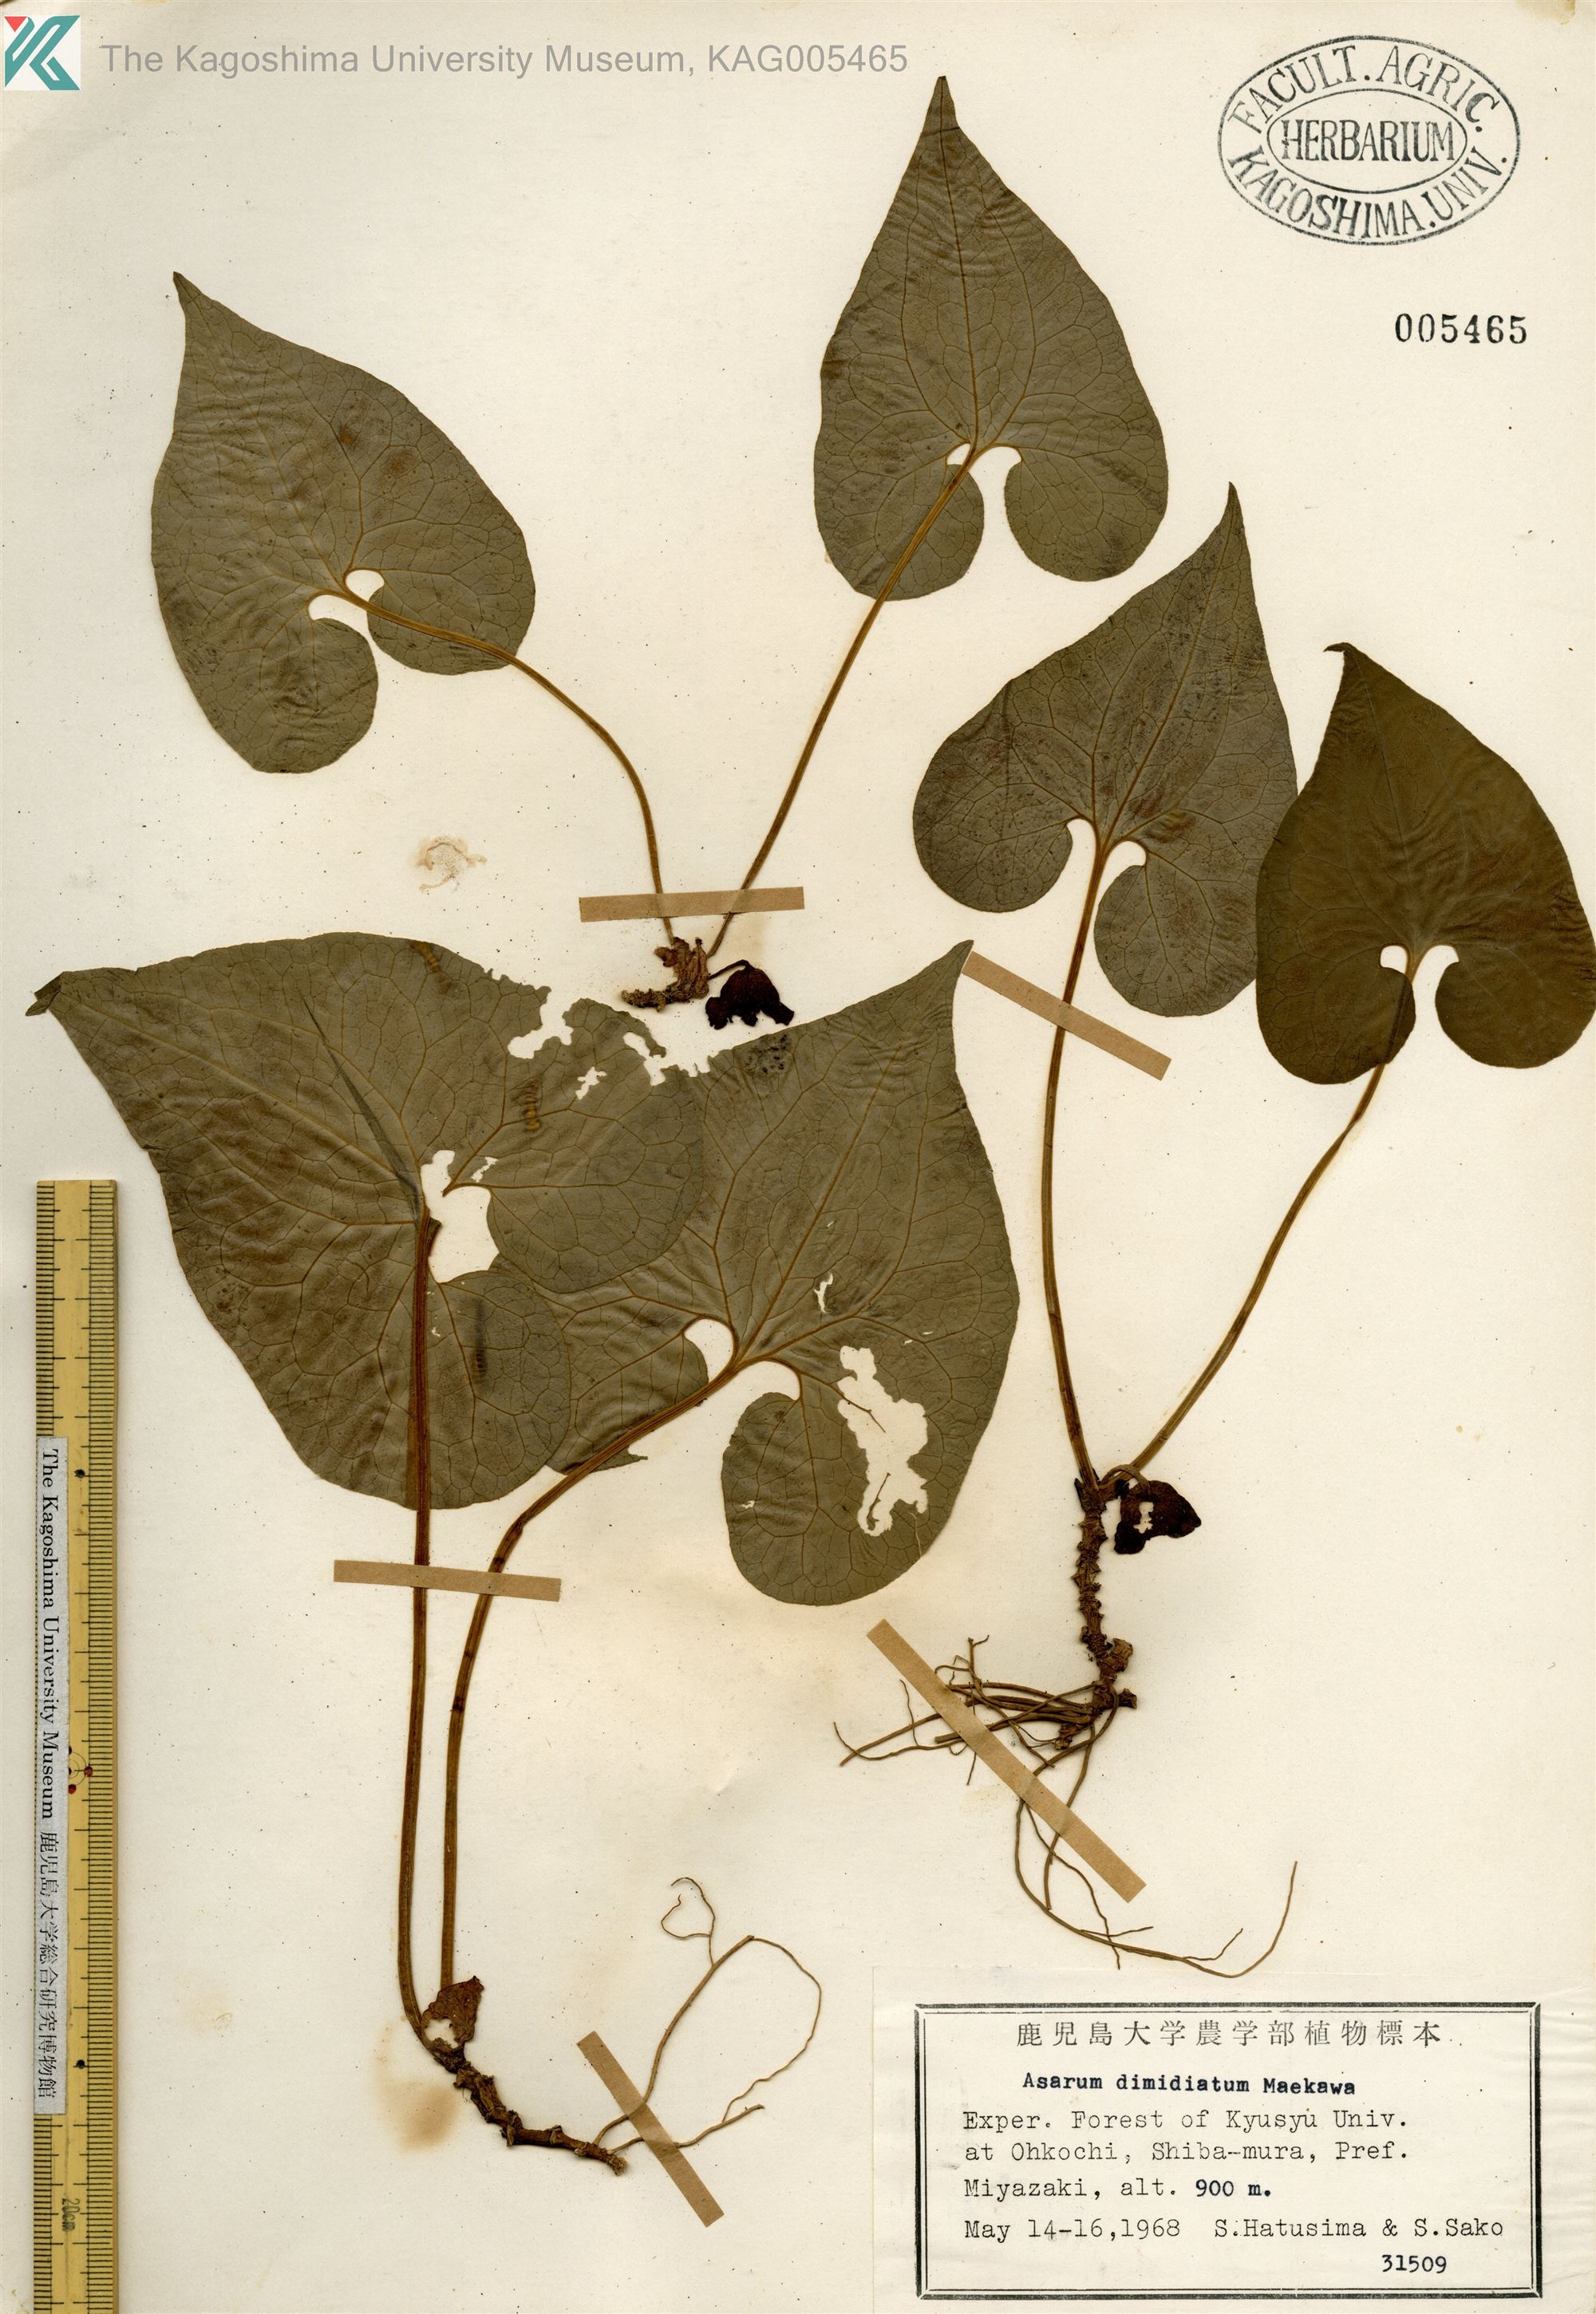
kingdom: Plantae
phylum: Tracheophyta
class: Magnoliopsida
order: Piperales
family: Aristolochiaceae
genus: Asarum
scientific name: Asarum sieboldii
